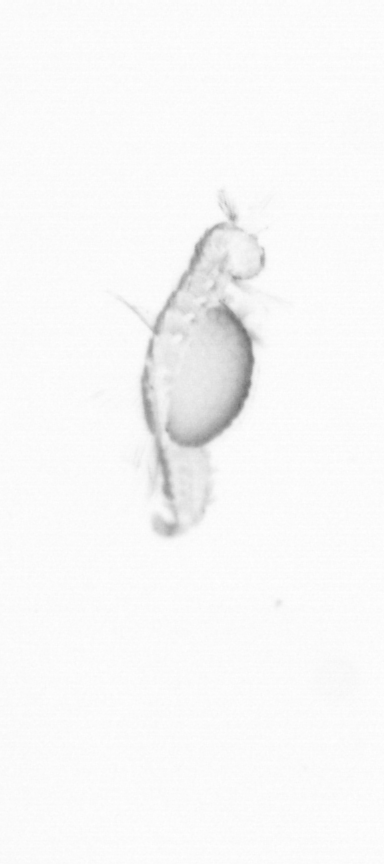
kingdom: Animalia
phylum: Annelida
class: Polychaeta
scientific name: Polychaeta
